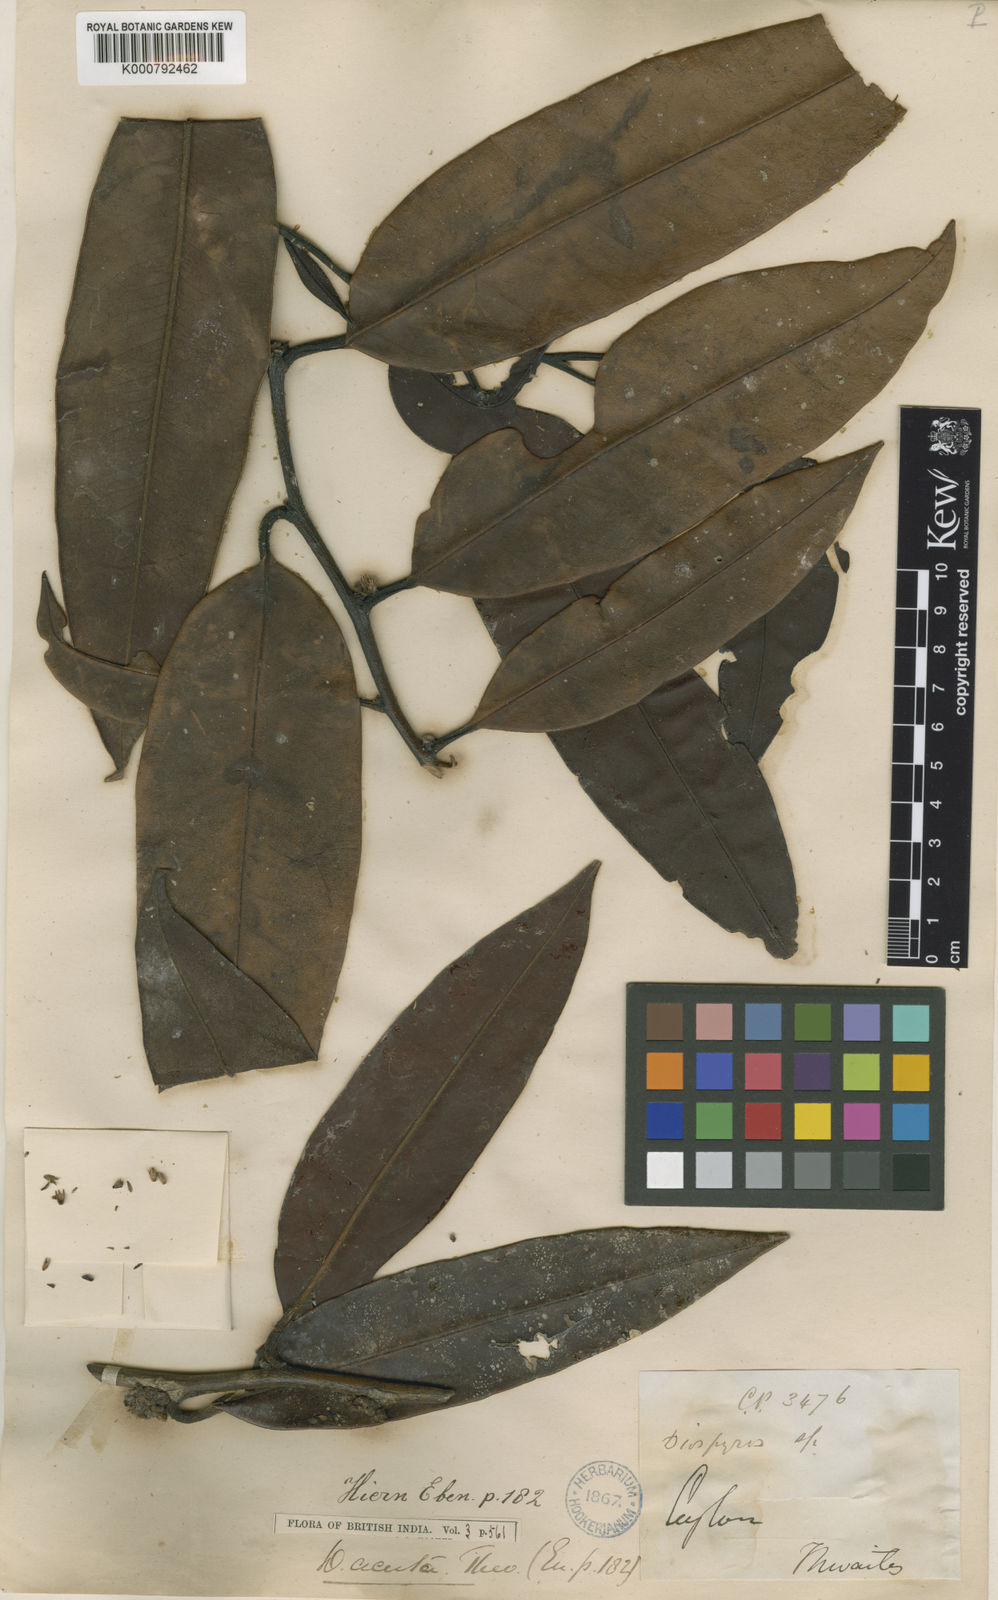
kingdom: Plantae
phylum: Tracheophyta
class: Magnoliopsida
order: Ericales
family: Ebenaceae
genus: Diospyros
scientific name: Diospyros acuta
